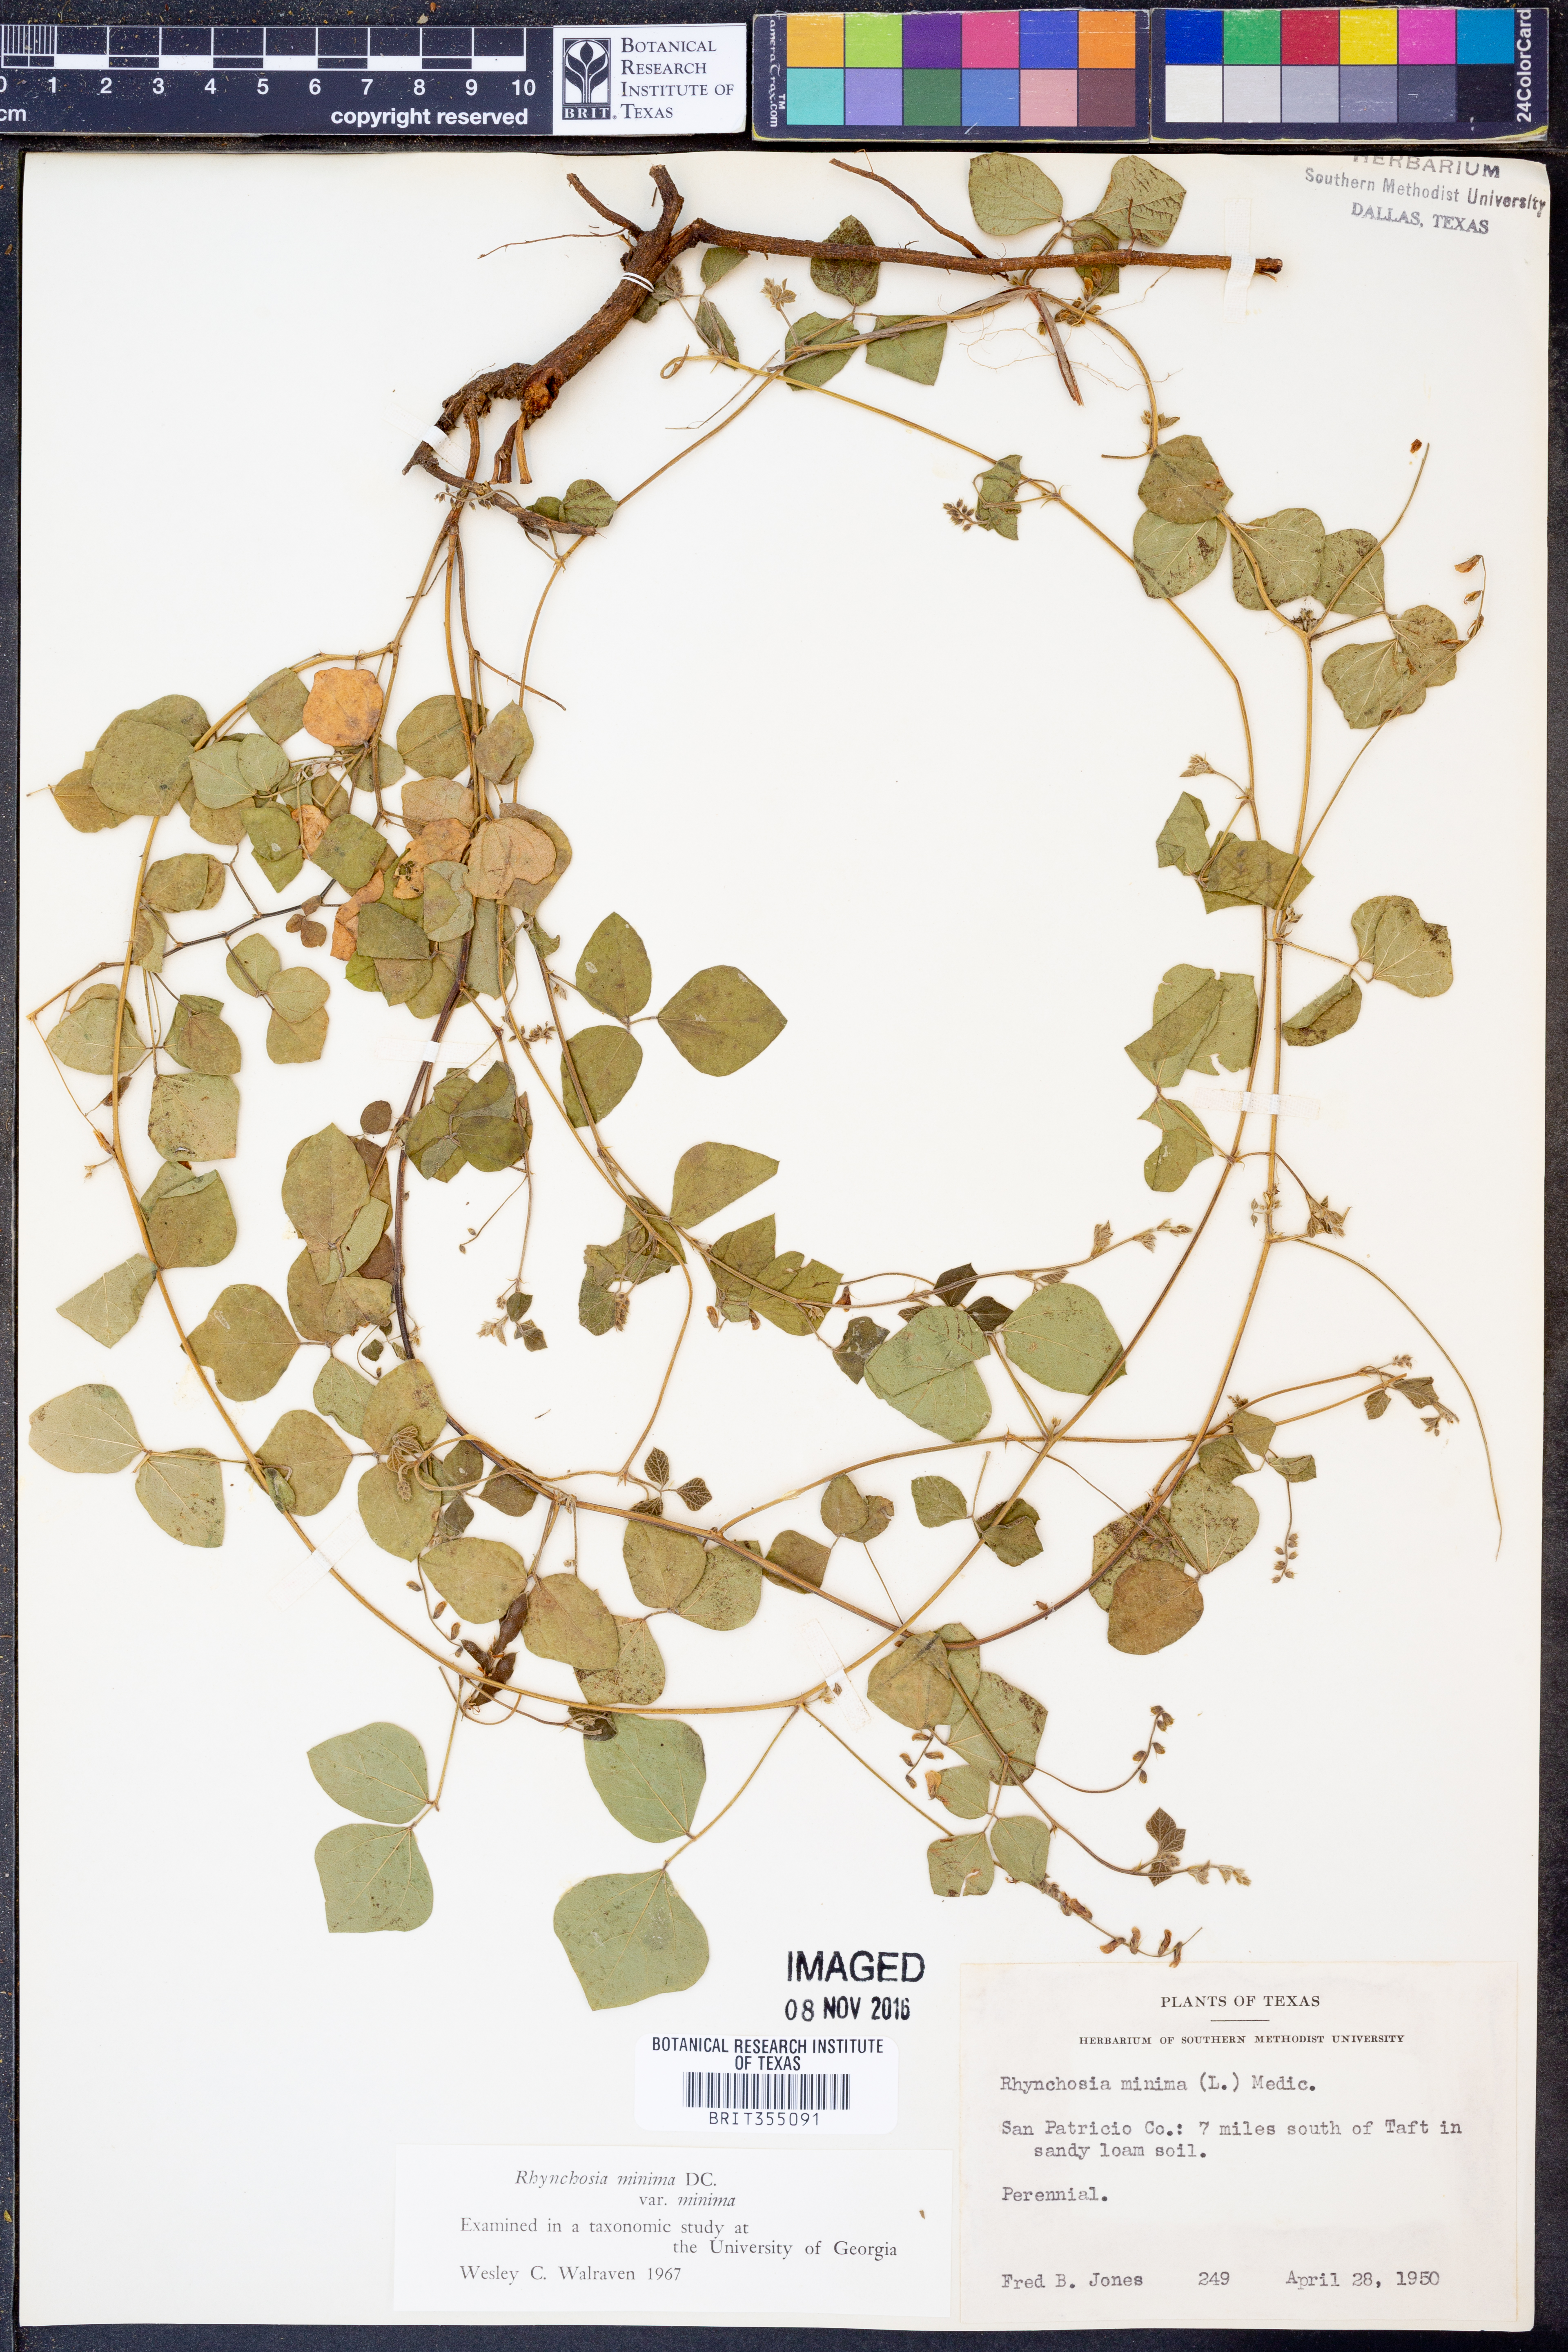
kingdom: Plantae
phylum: Tracheophyta
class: Magnoliopsida
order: Fabales
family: Fabaceae
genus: Rhynchosia
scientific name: Rhynchosia minima
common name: Least snoutbean
